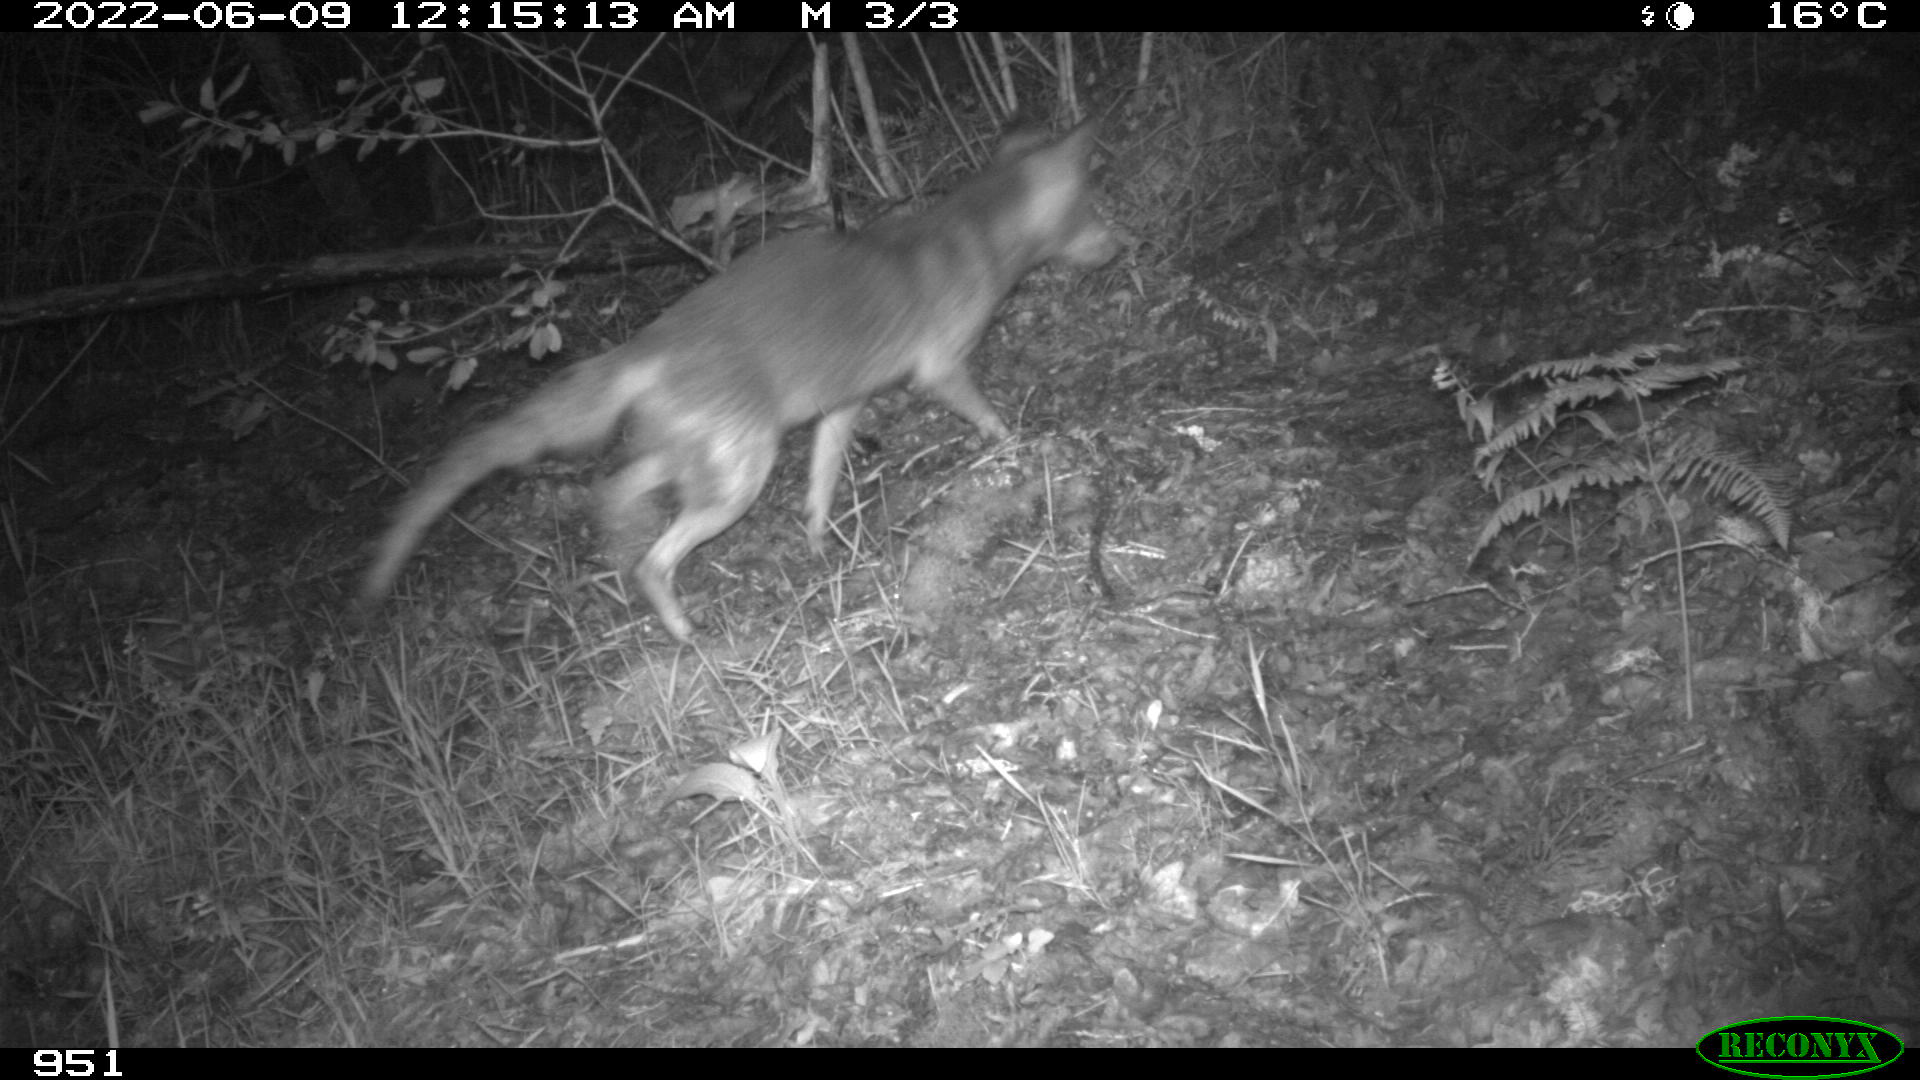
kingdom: Animalia
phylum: Chordata
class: Mammalia
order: Carnivora
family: Canidae
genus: Vulpes
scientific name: Vulpes vulpes
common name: Red fox
